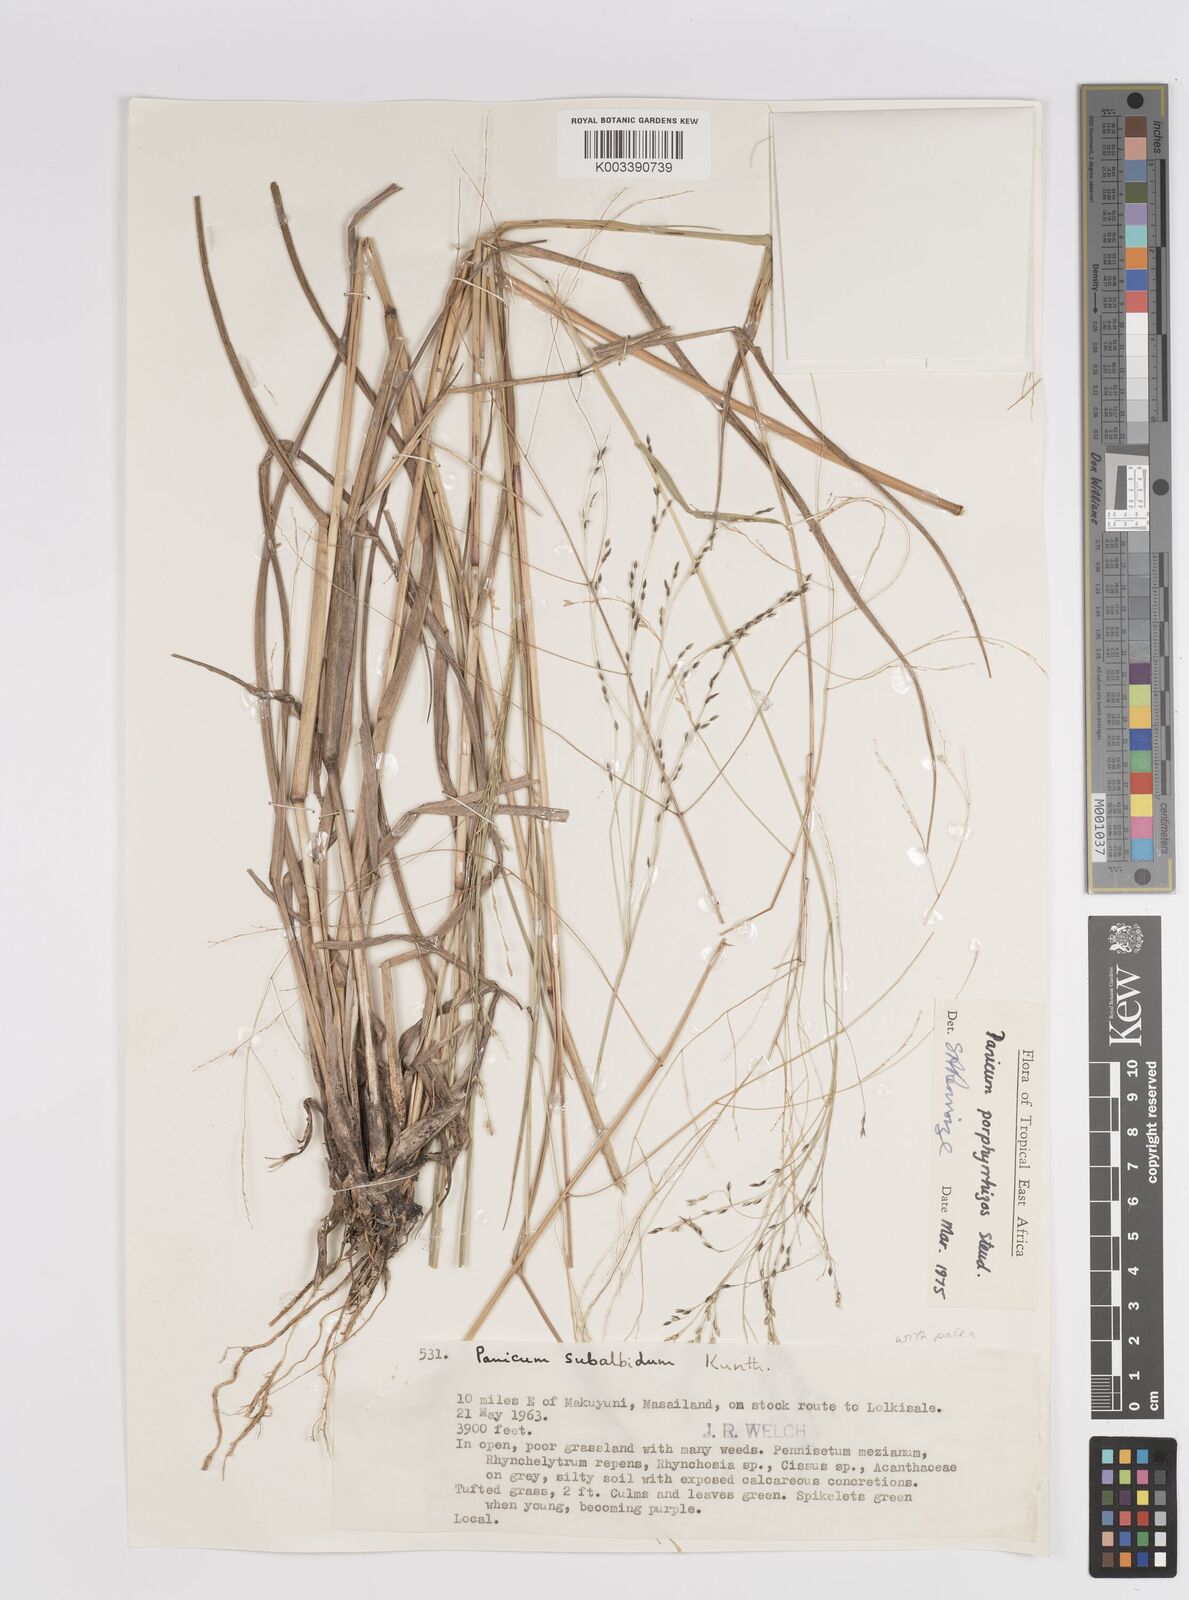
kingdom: Plantae
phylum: Tracheophyta
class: Liliopsida
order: Poales
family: Poaceae
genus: Panicum
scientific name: Panicum porphyrrhizos
